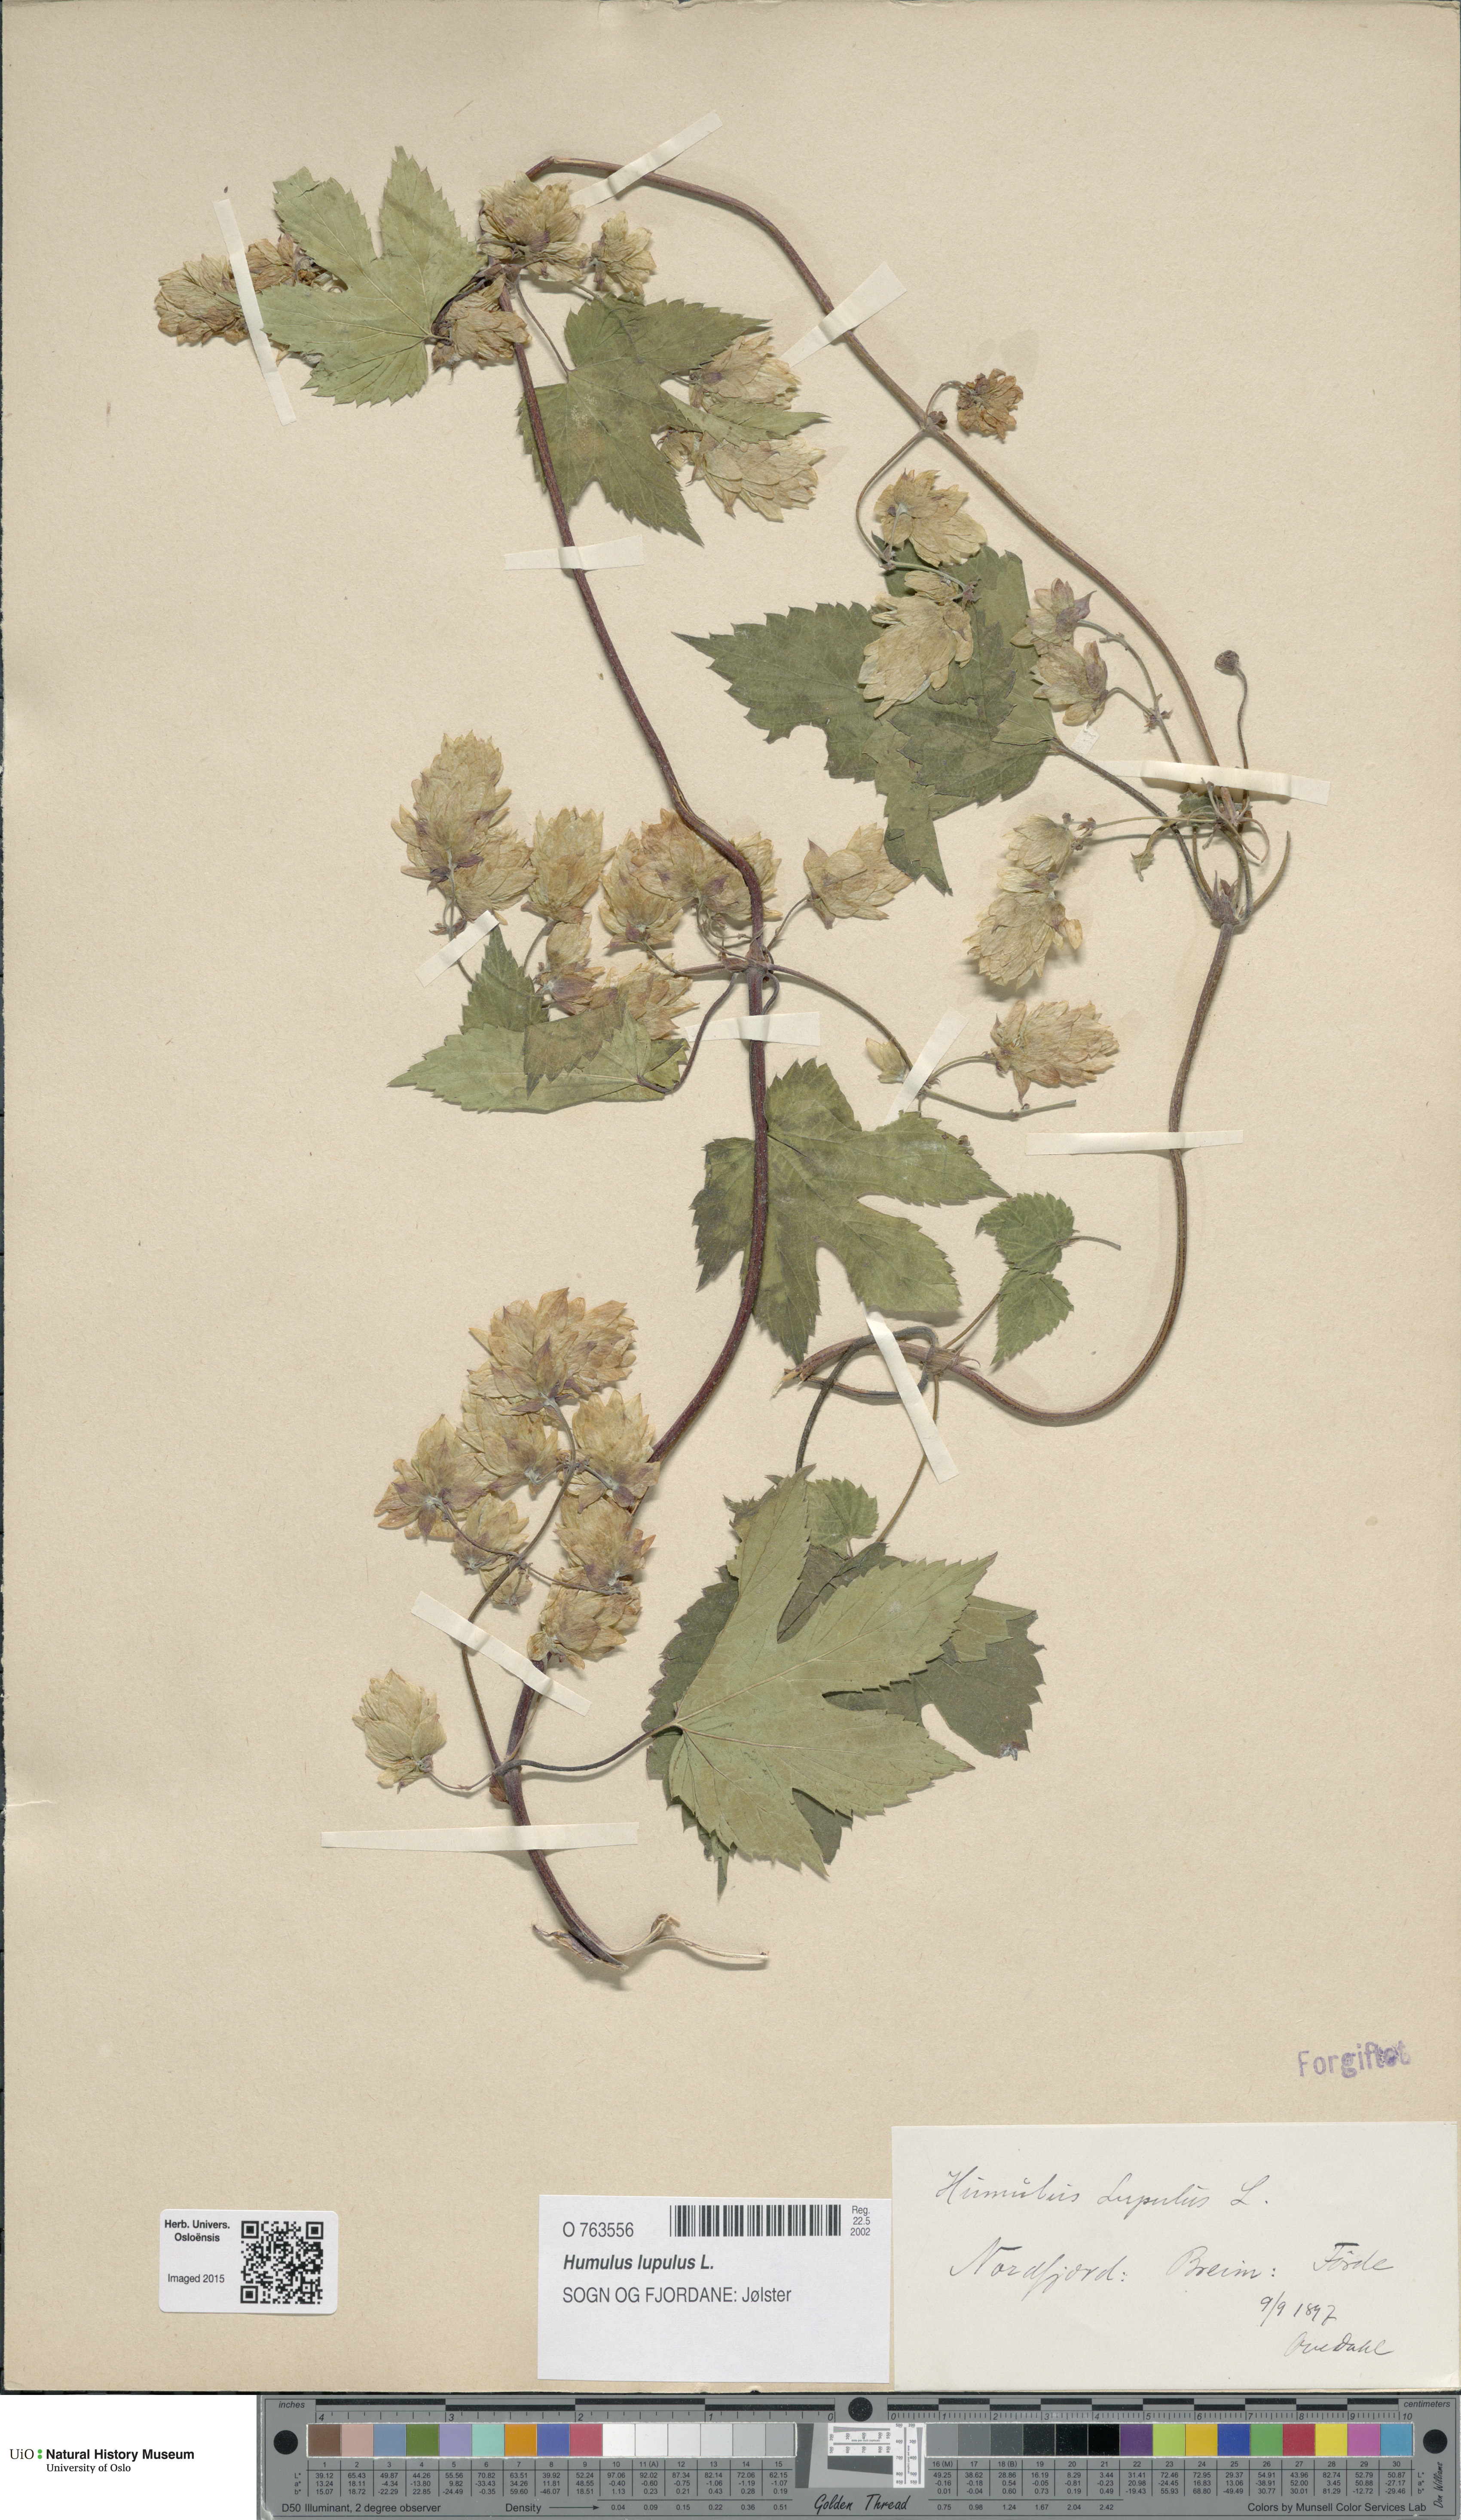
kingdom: Plantae
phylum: Tracheophyta
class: Magnoliopsida
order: Rosales
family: Cannabaceae
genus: Humulus
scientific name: Humulus lupulus
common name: Hop
